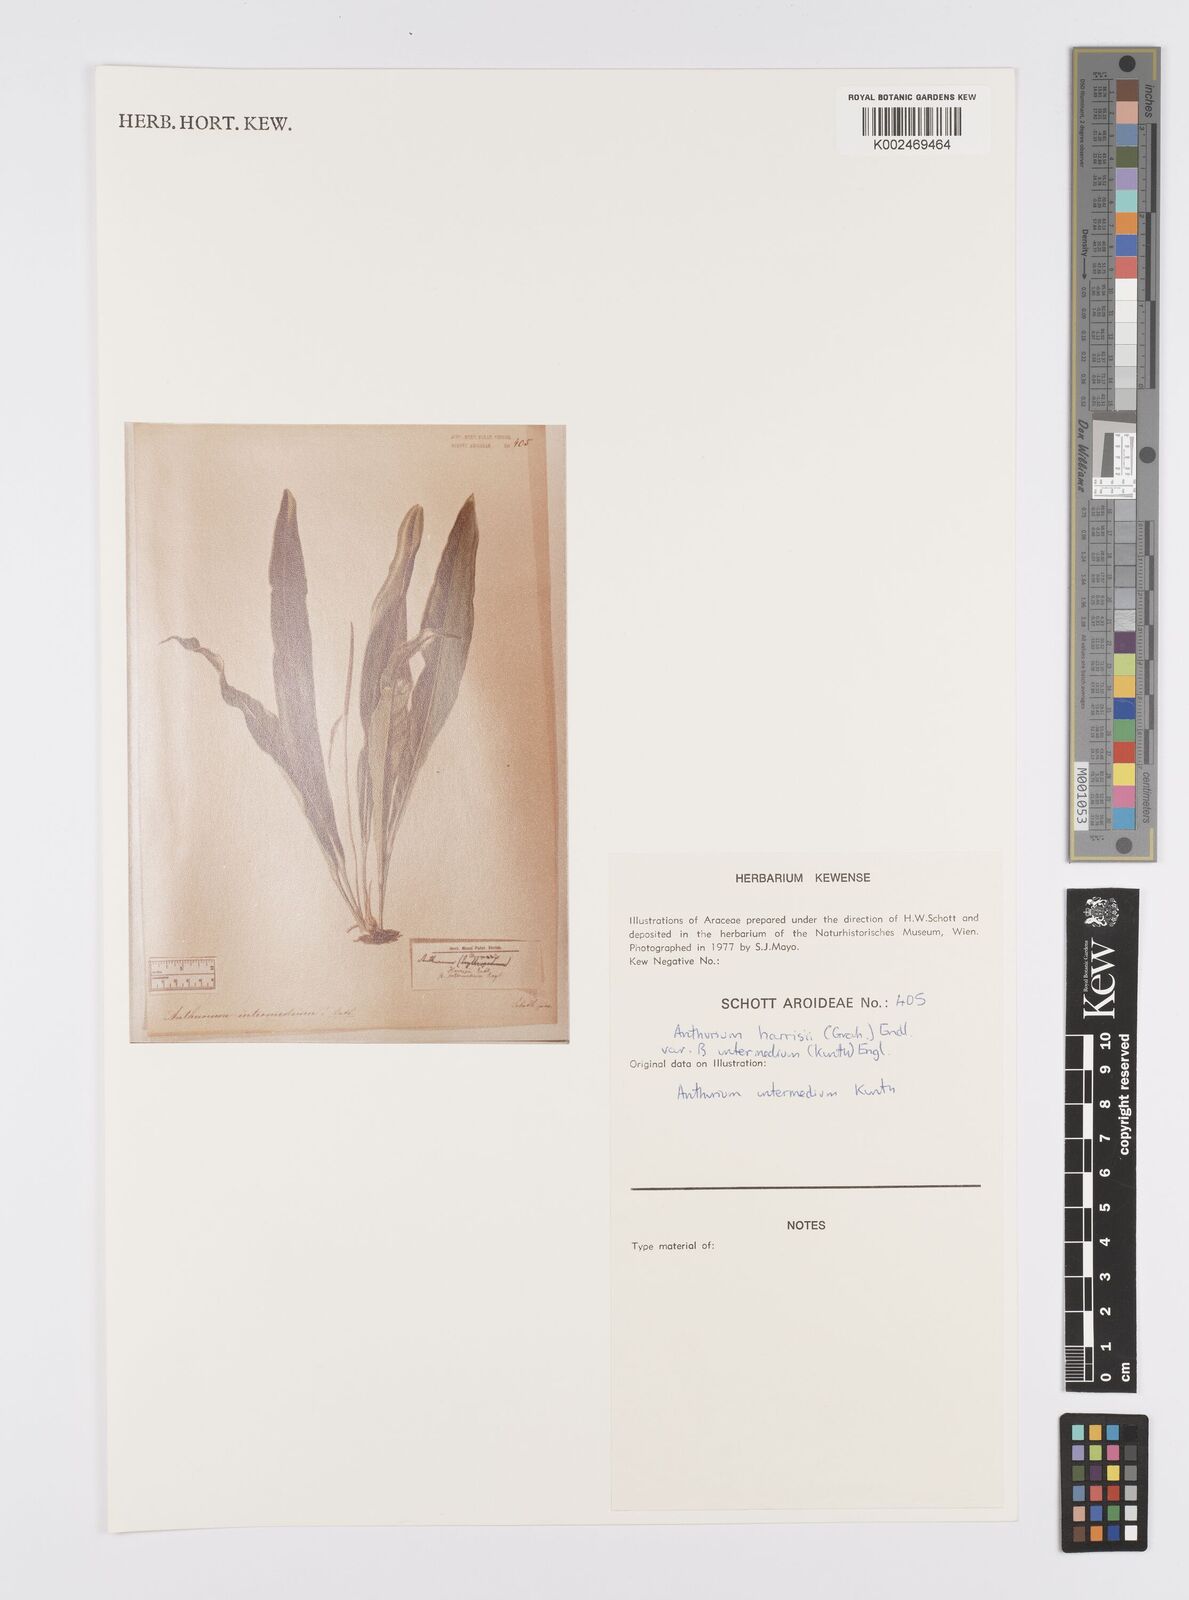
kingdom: Plantae
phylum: Tracheophyta
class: Liliopsida
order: Alismatales
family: Araceae
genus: Anthurium
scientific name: Anthurium intermedium
